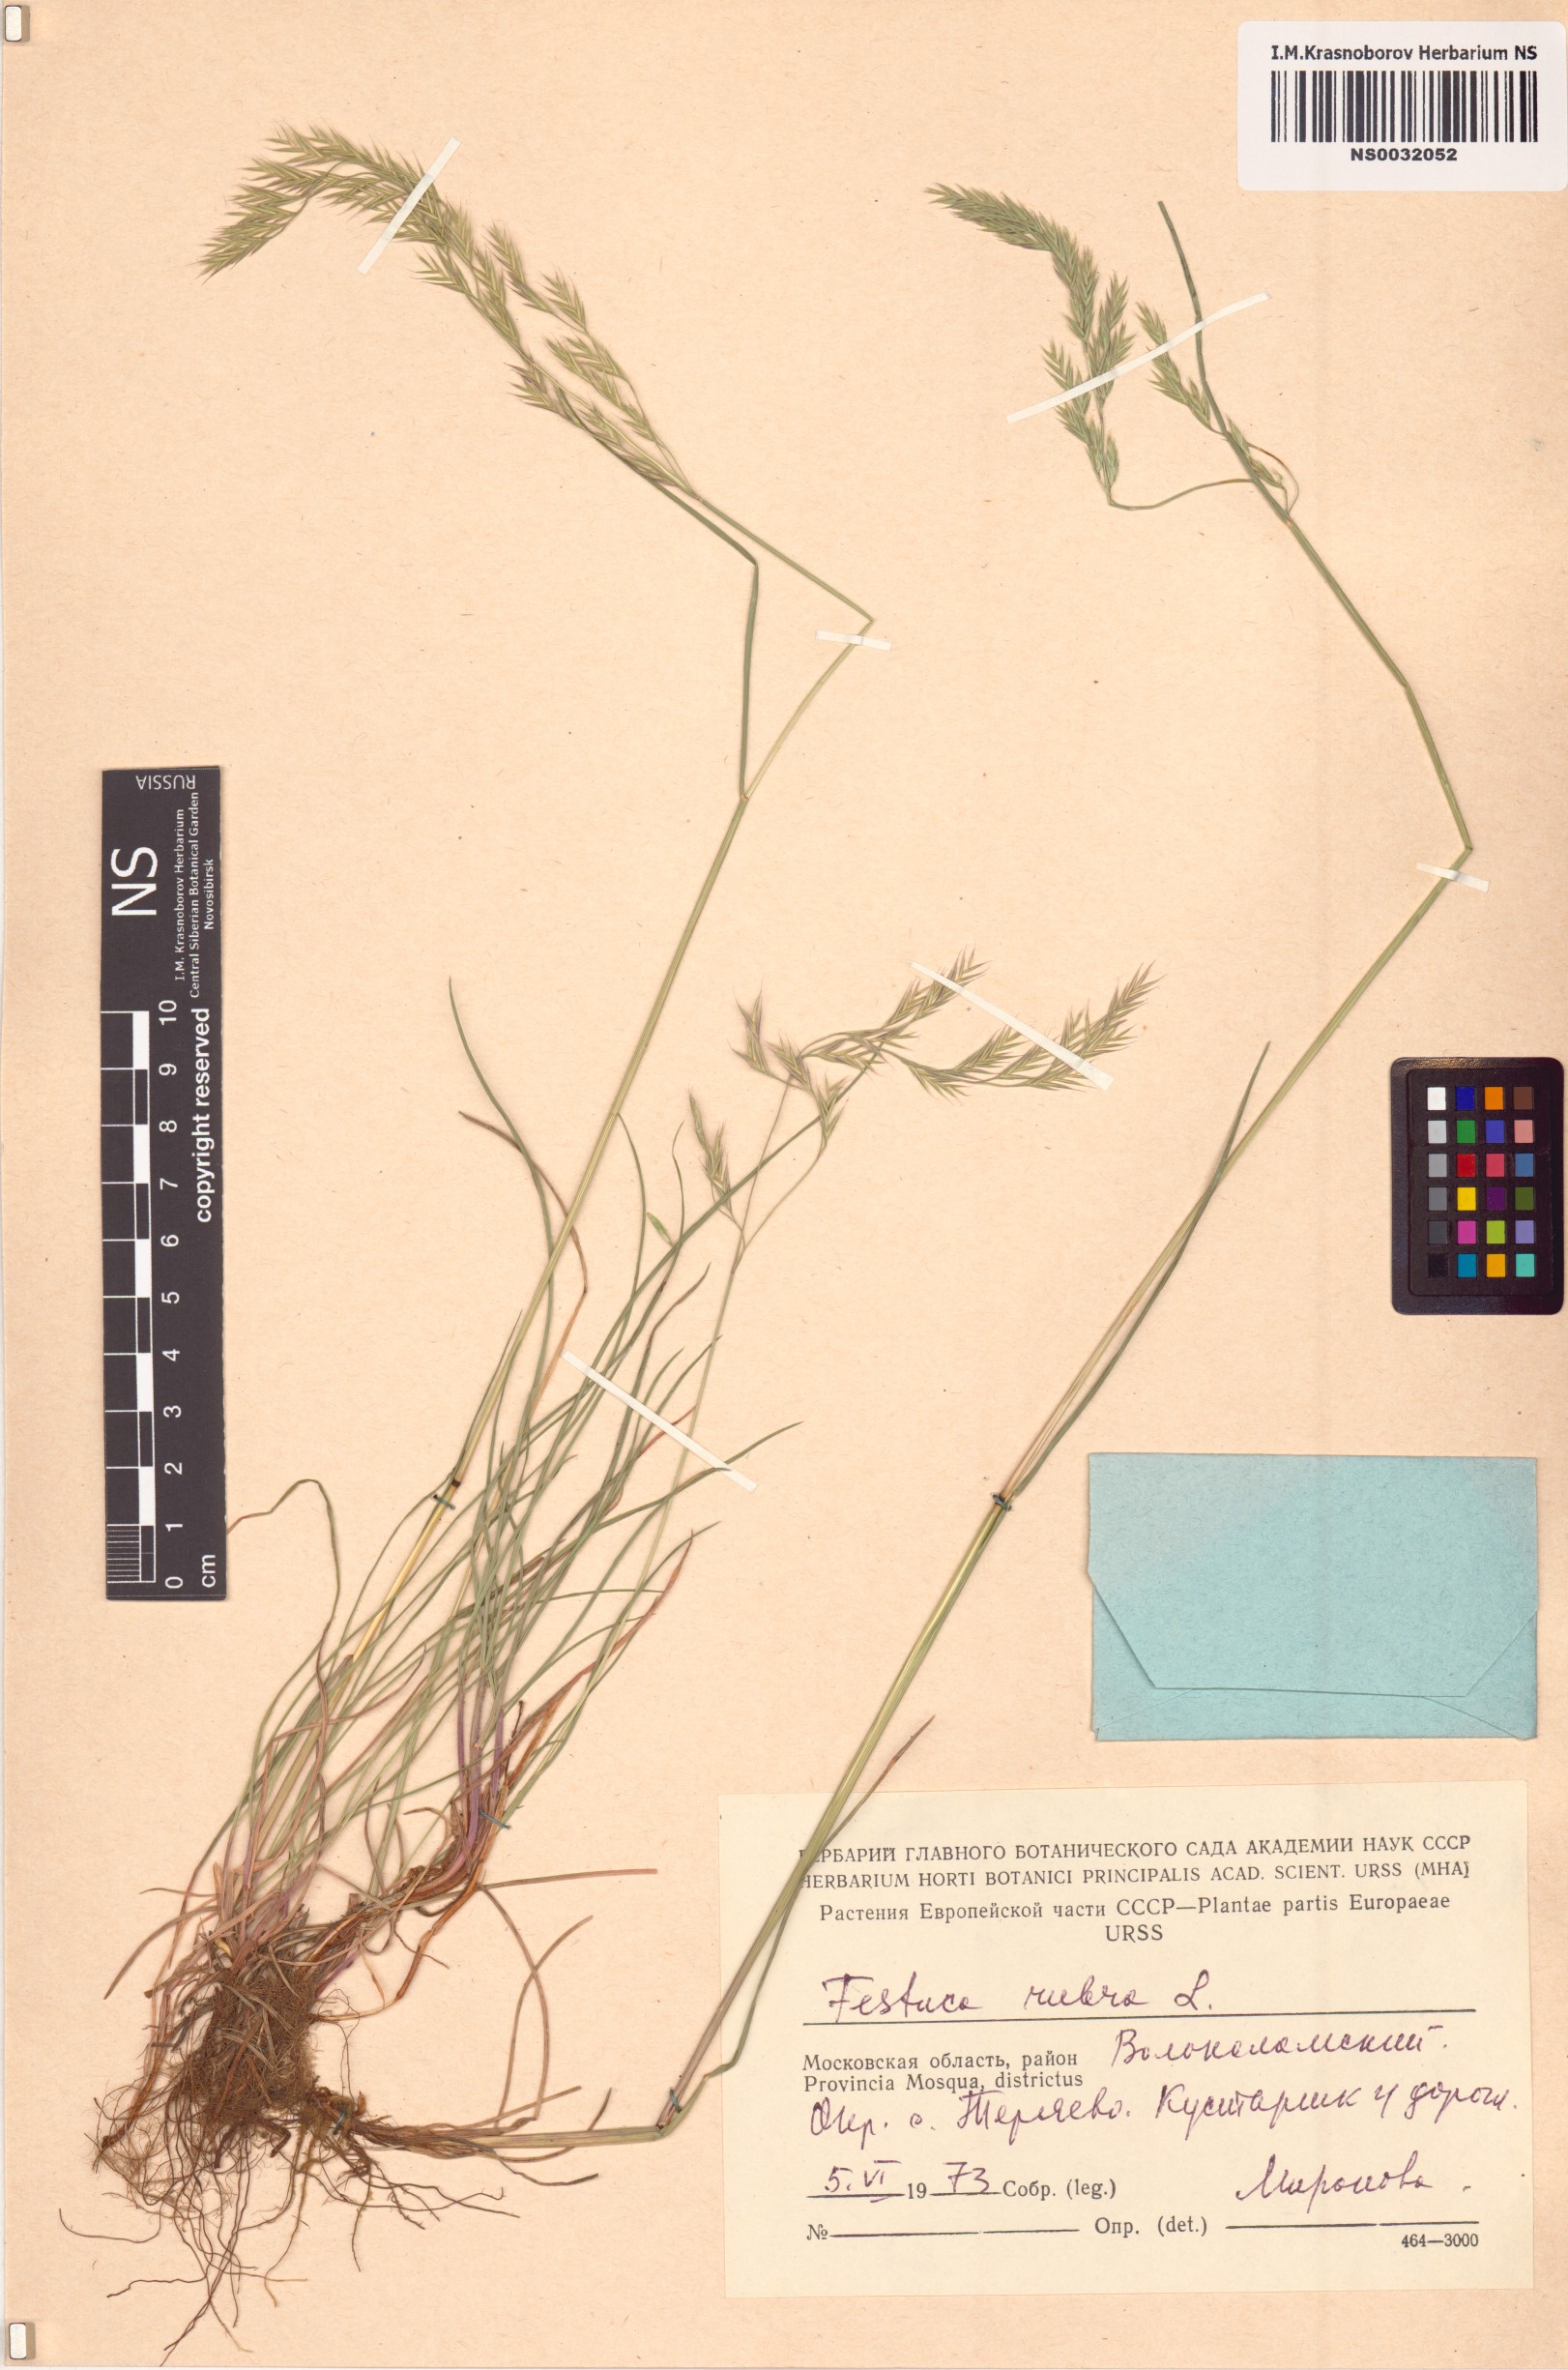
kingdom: Plantae
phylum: Tracheophyta
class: Liliopsida
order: Poales
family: Poaceae
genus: Festuca
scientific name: Festuca rubra
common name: Red fescue
